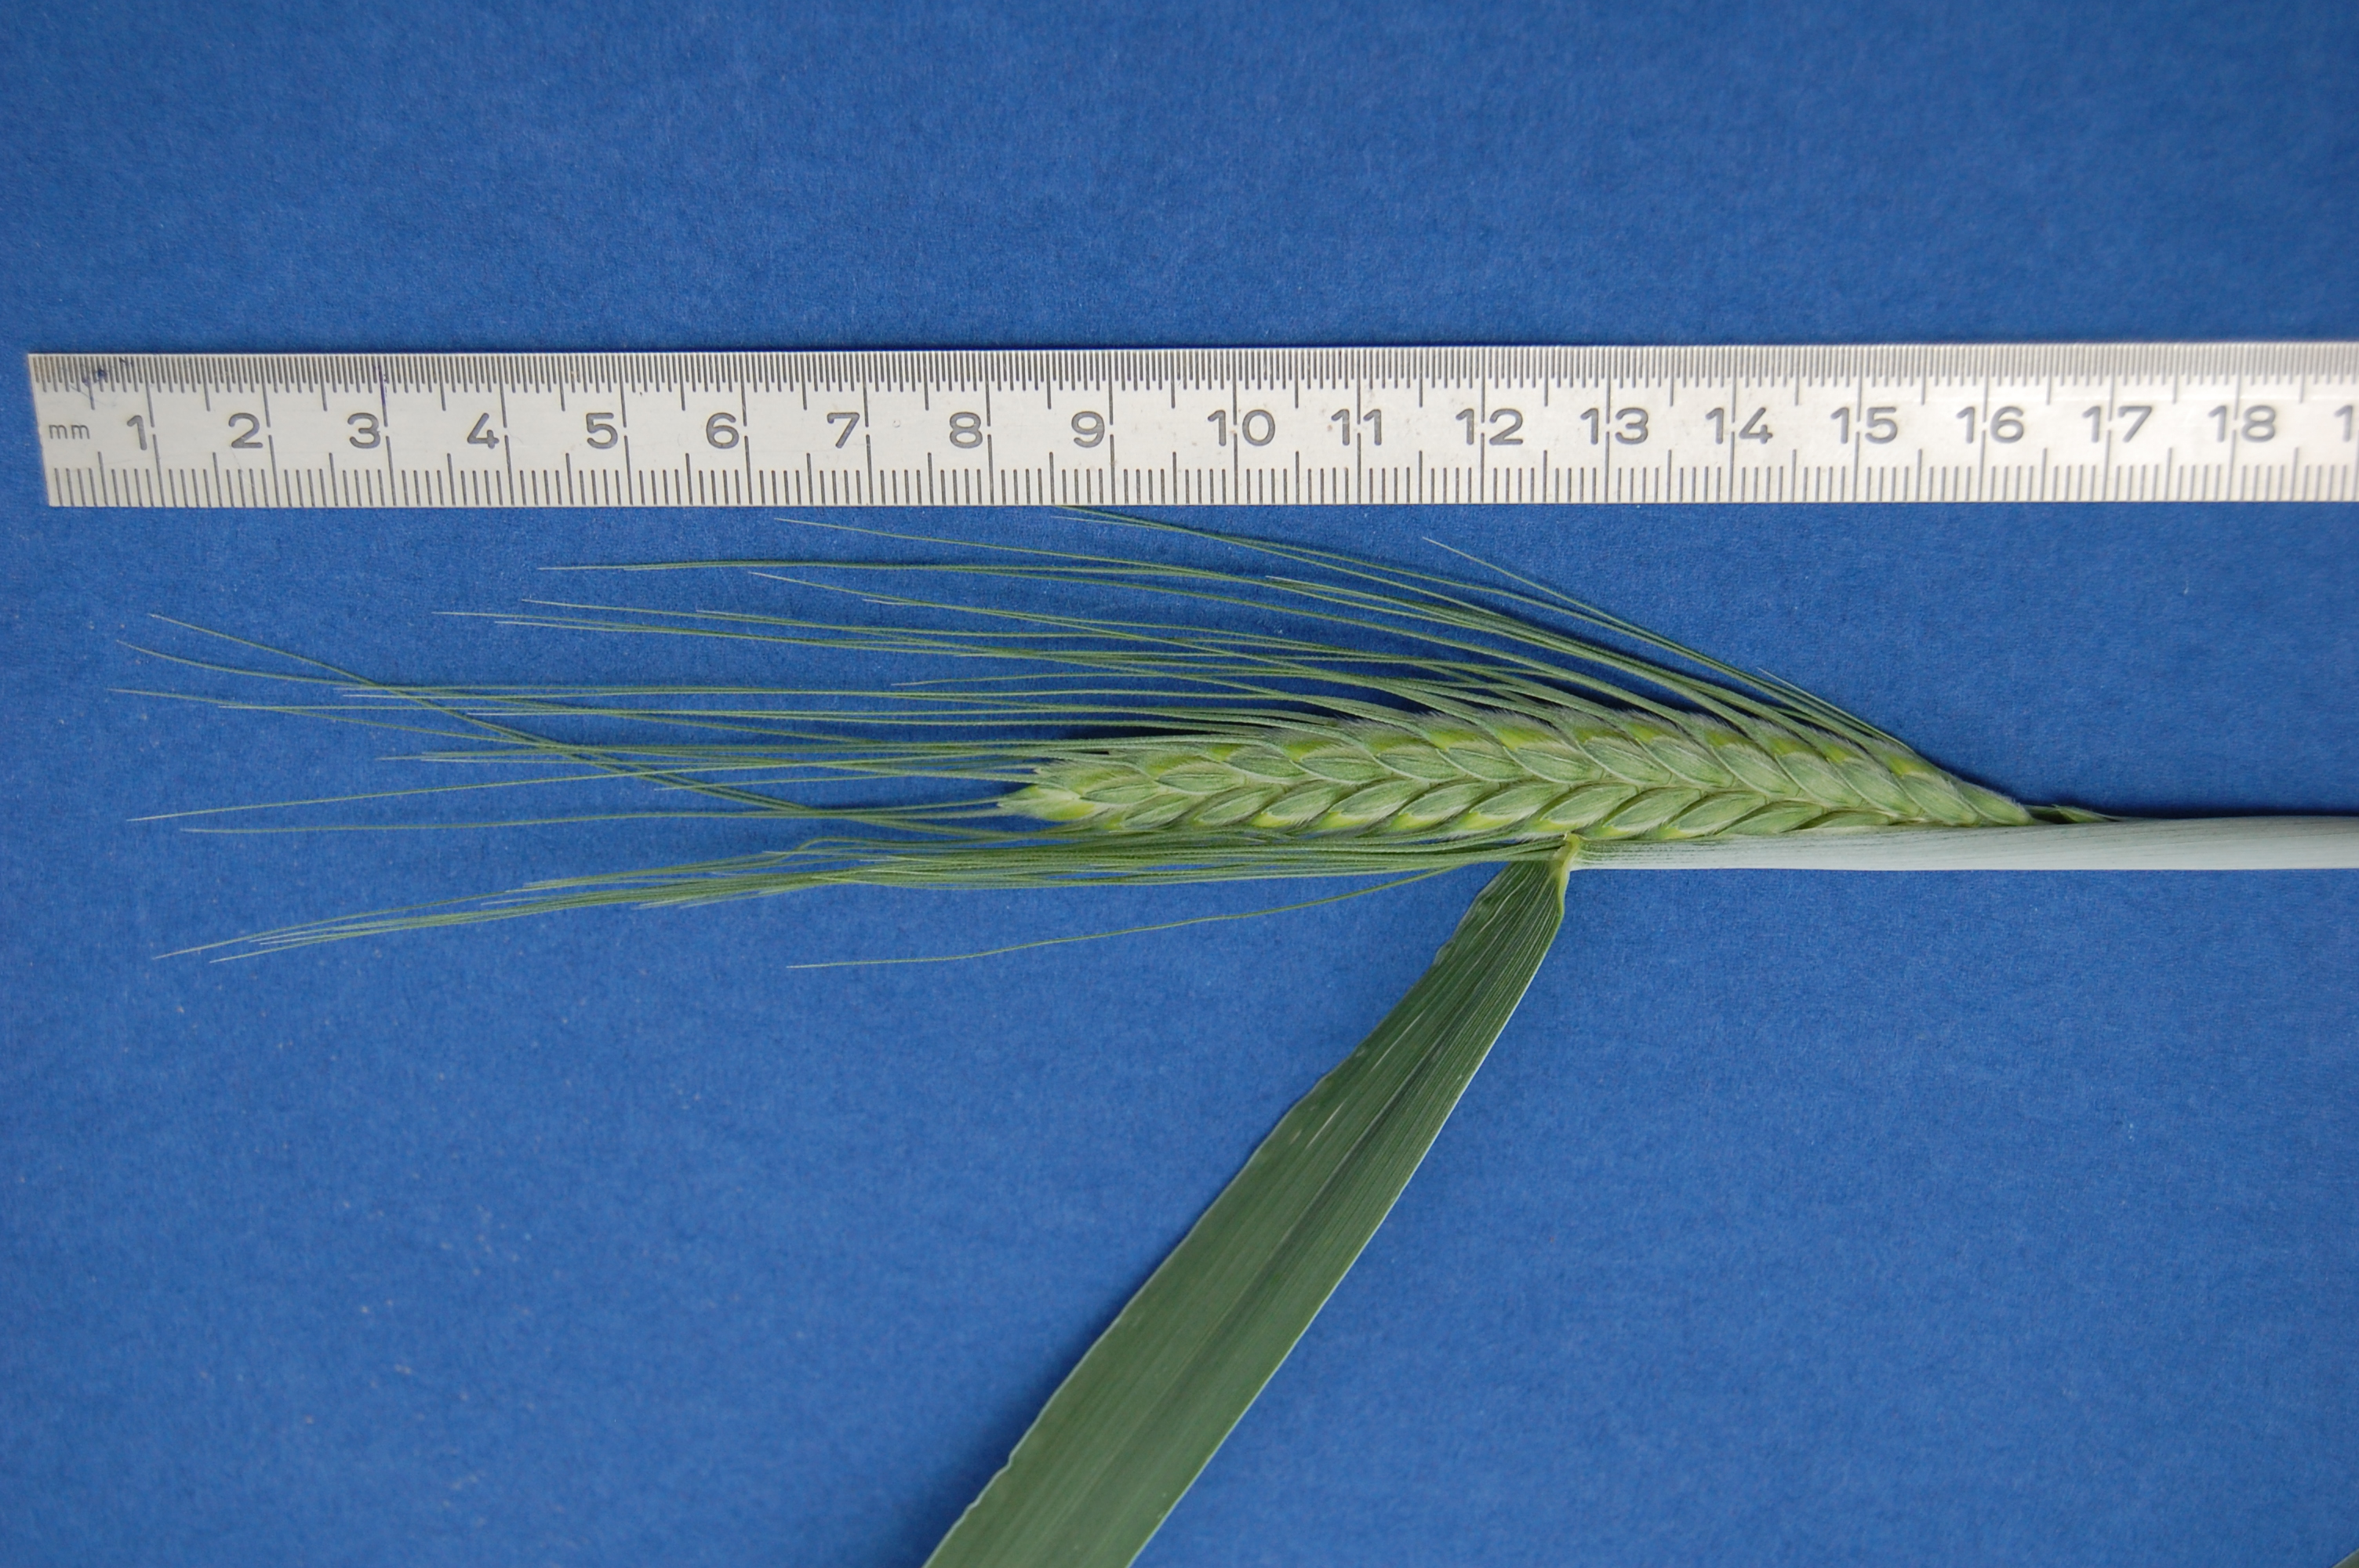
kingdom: Plantae
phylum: Tracheophyta
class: Liliopsida
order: Poales
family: Poaceae
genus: Triticum
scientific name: Triticum turgidum
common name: Rivet wheat
